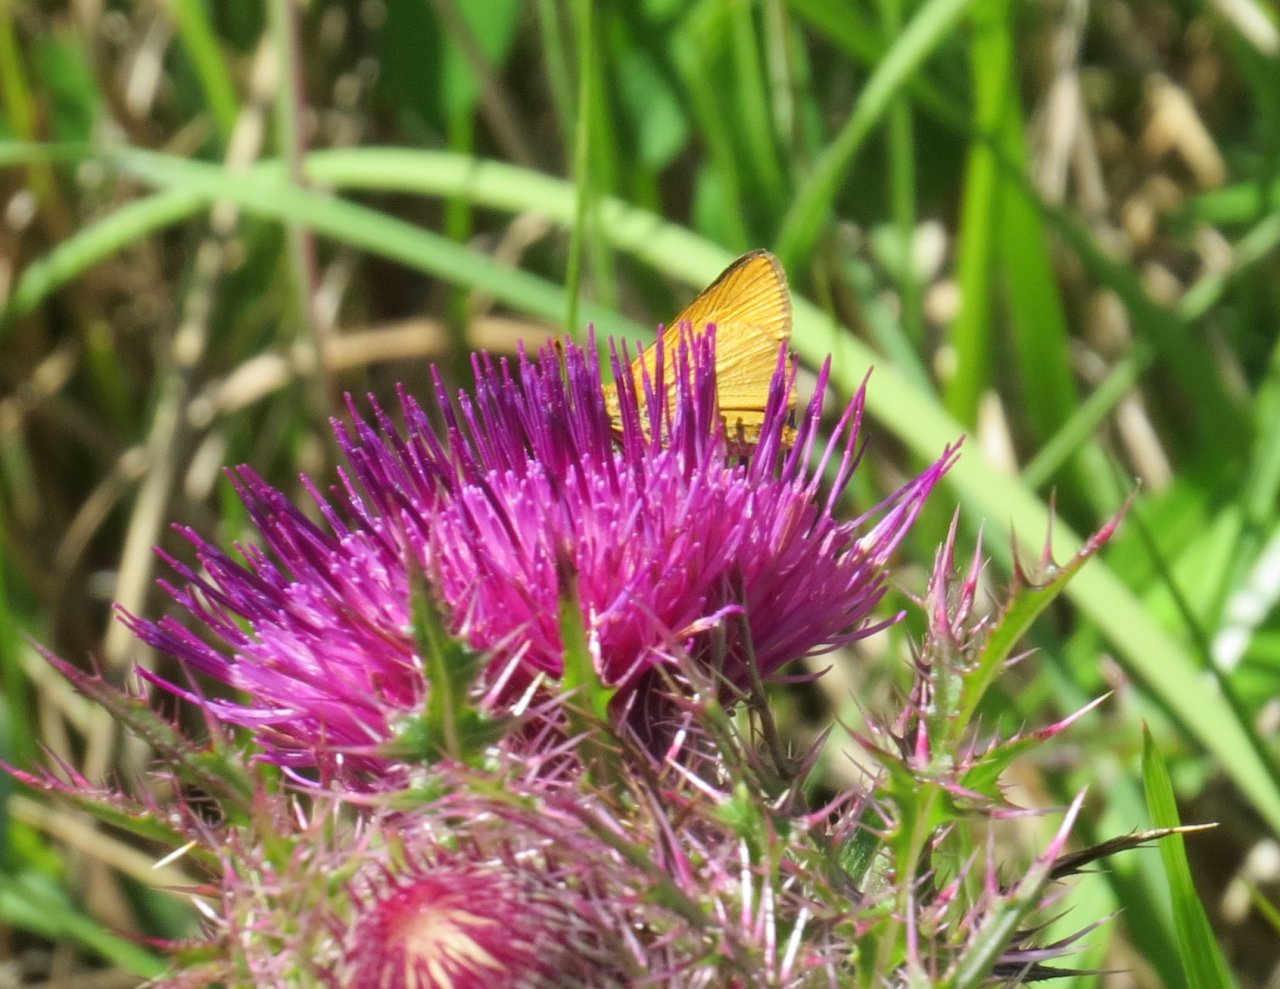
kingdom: Animalia
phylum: Arthropoda
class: Insecta
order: Lepidoptera
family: Hesperiidae
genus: Atrytone
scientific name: Atrytone delaware
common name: Delaware Skipper
